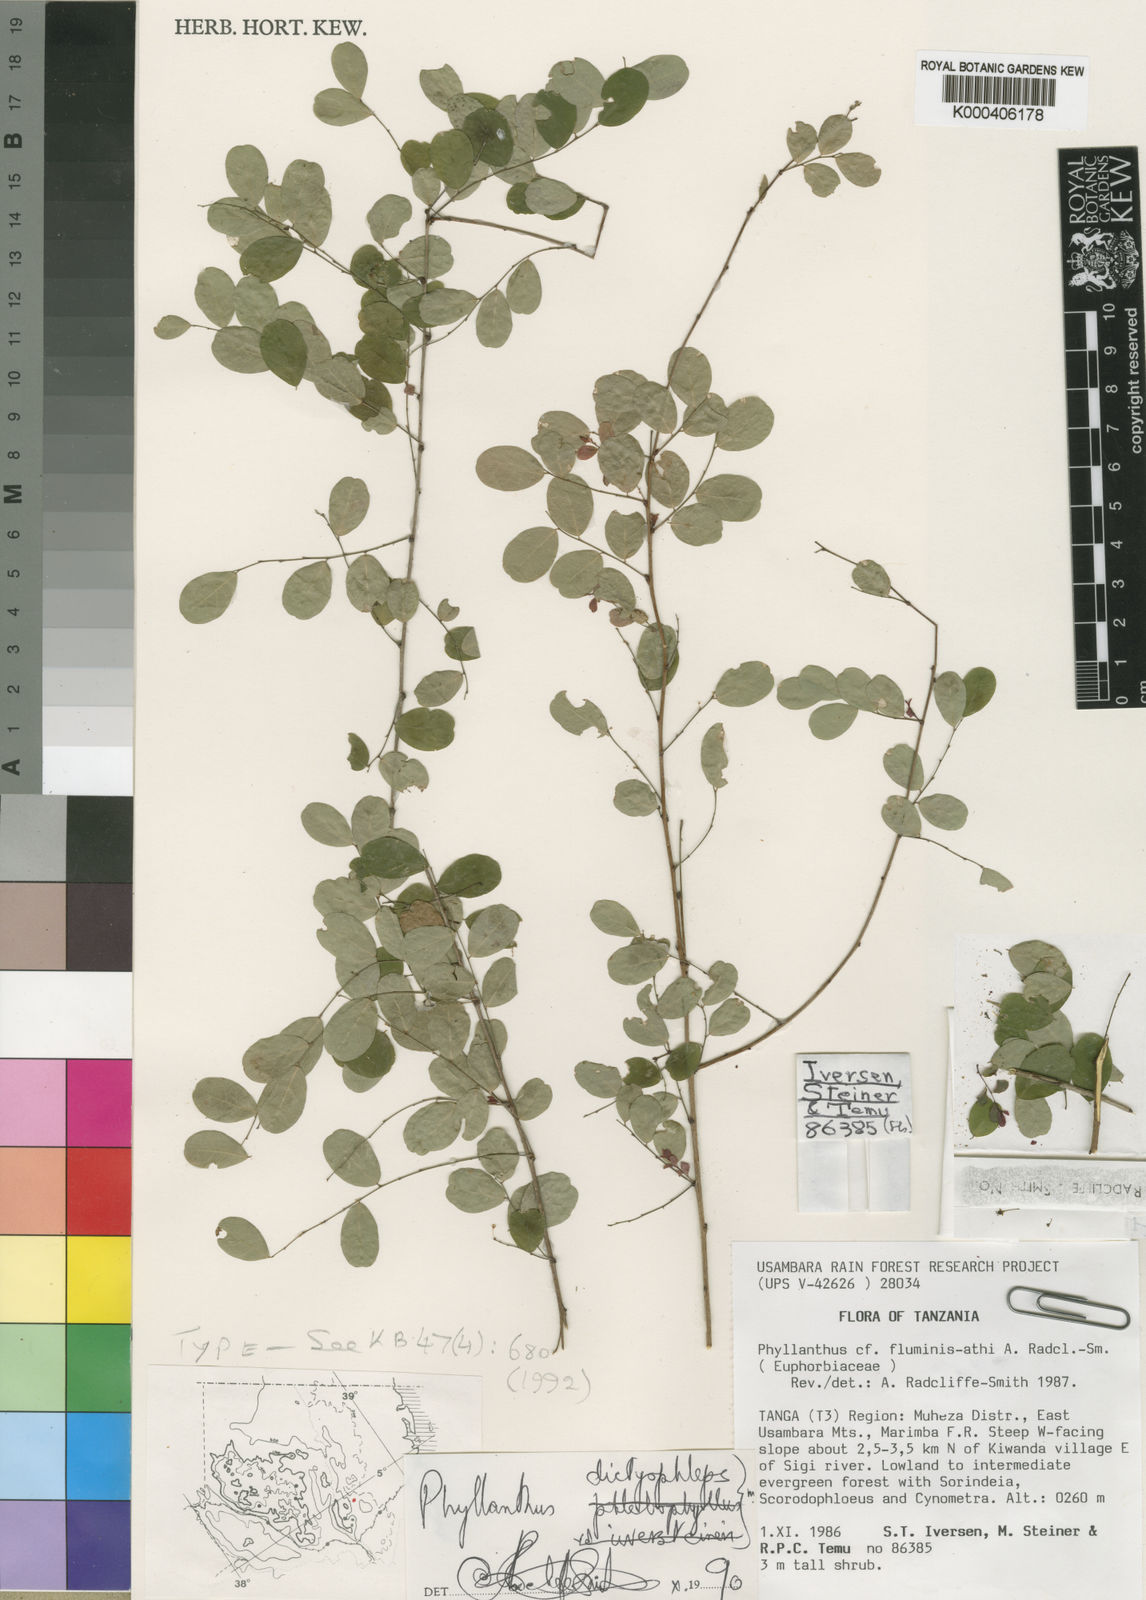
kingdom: Plantae
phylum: Tracheophyta
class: Magnoliopsida
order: Malpighiales
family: Phyllanthaceae
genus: Phyllanthus
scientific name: Phyllanthus dictyophlebsis
